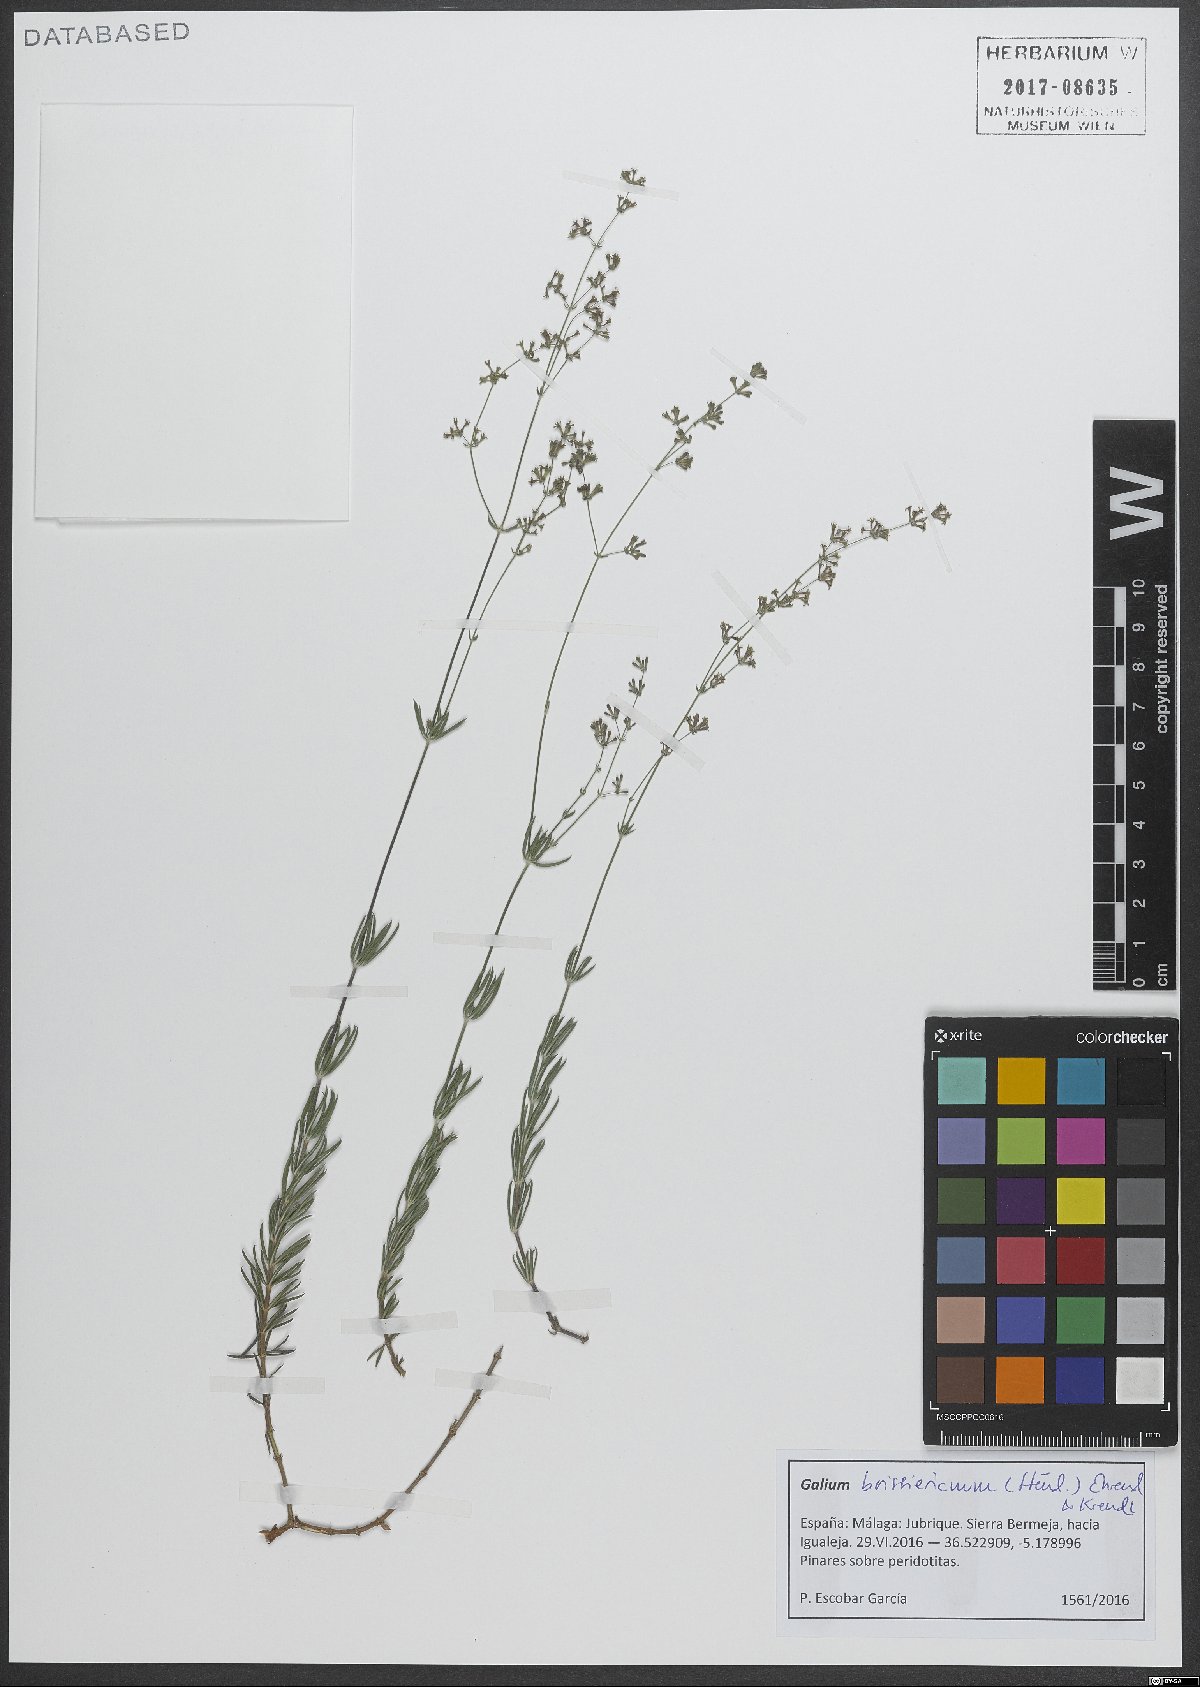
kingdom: Plantae
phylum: Tracheophyta
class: Magnoliopsida
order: Gentianales
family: Rubiaceae
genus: Galium
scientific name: Galium boissierianum
